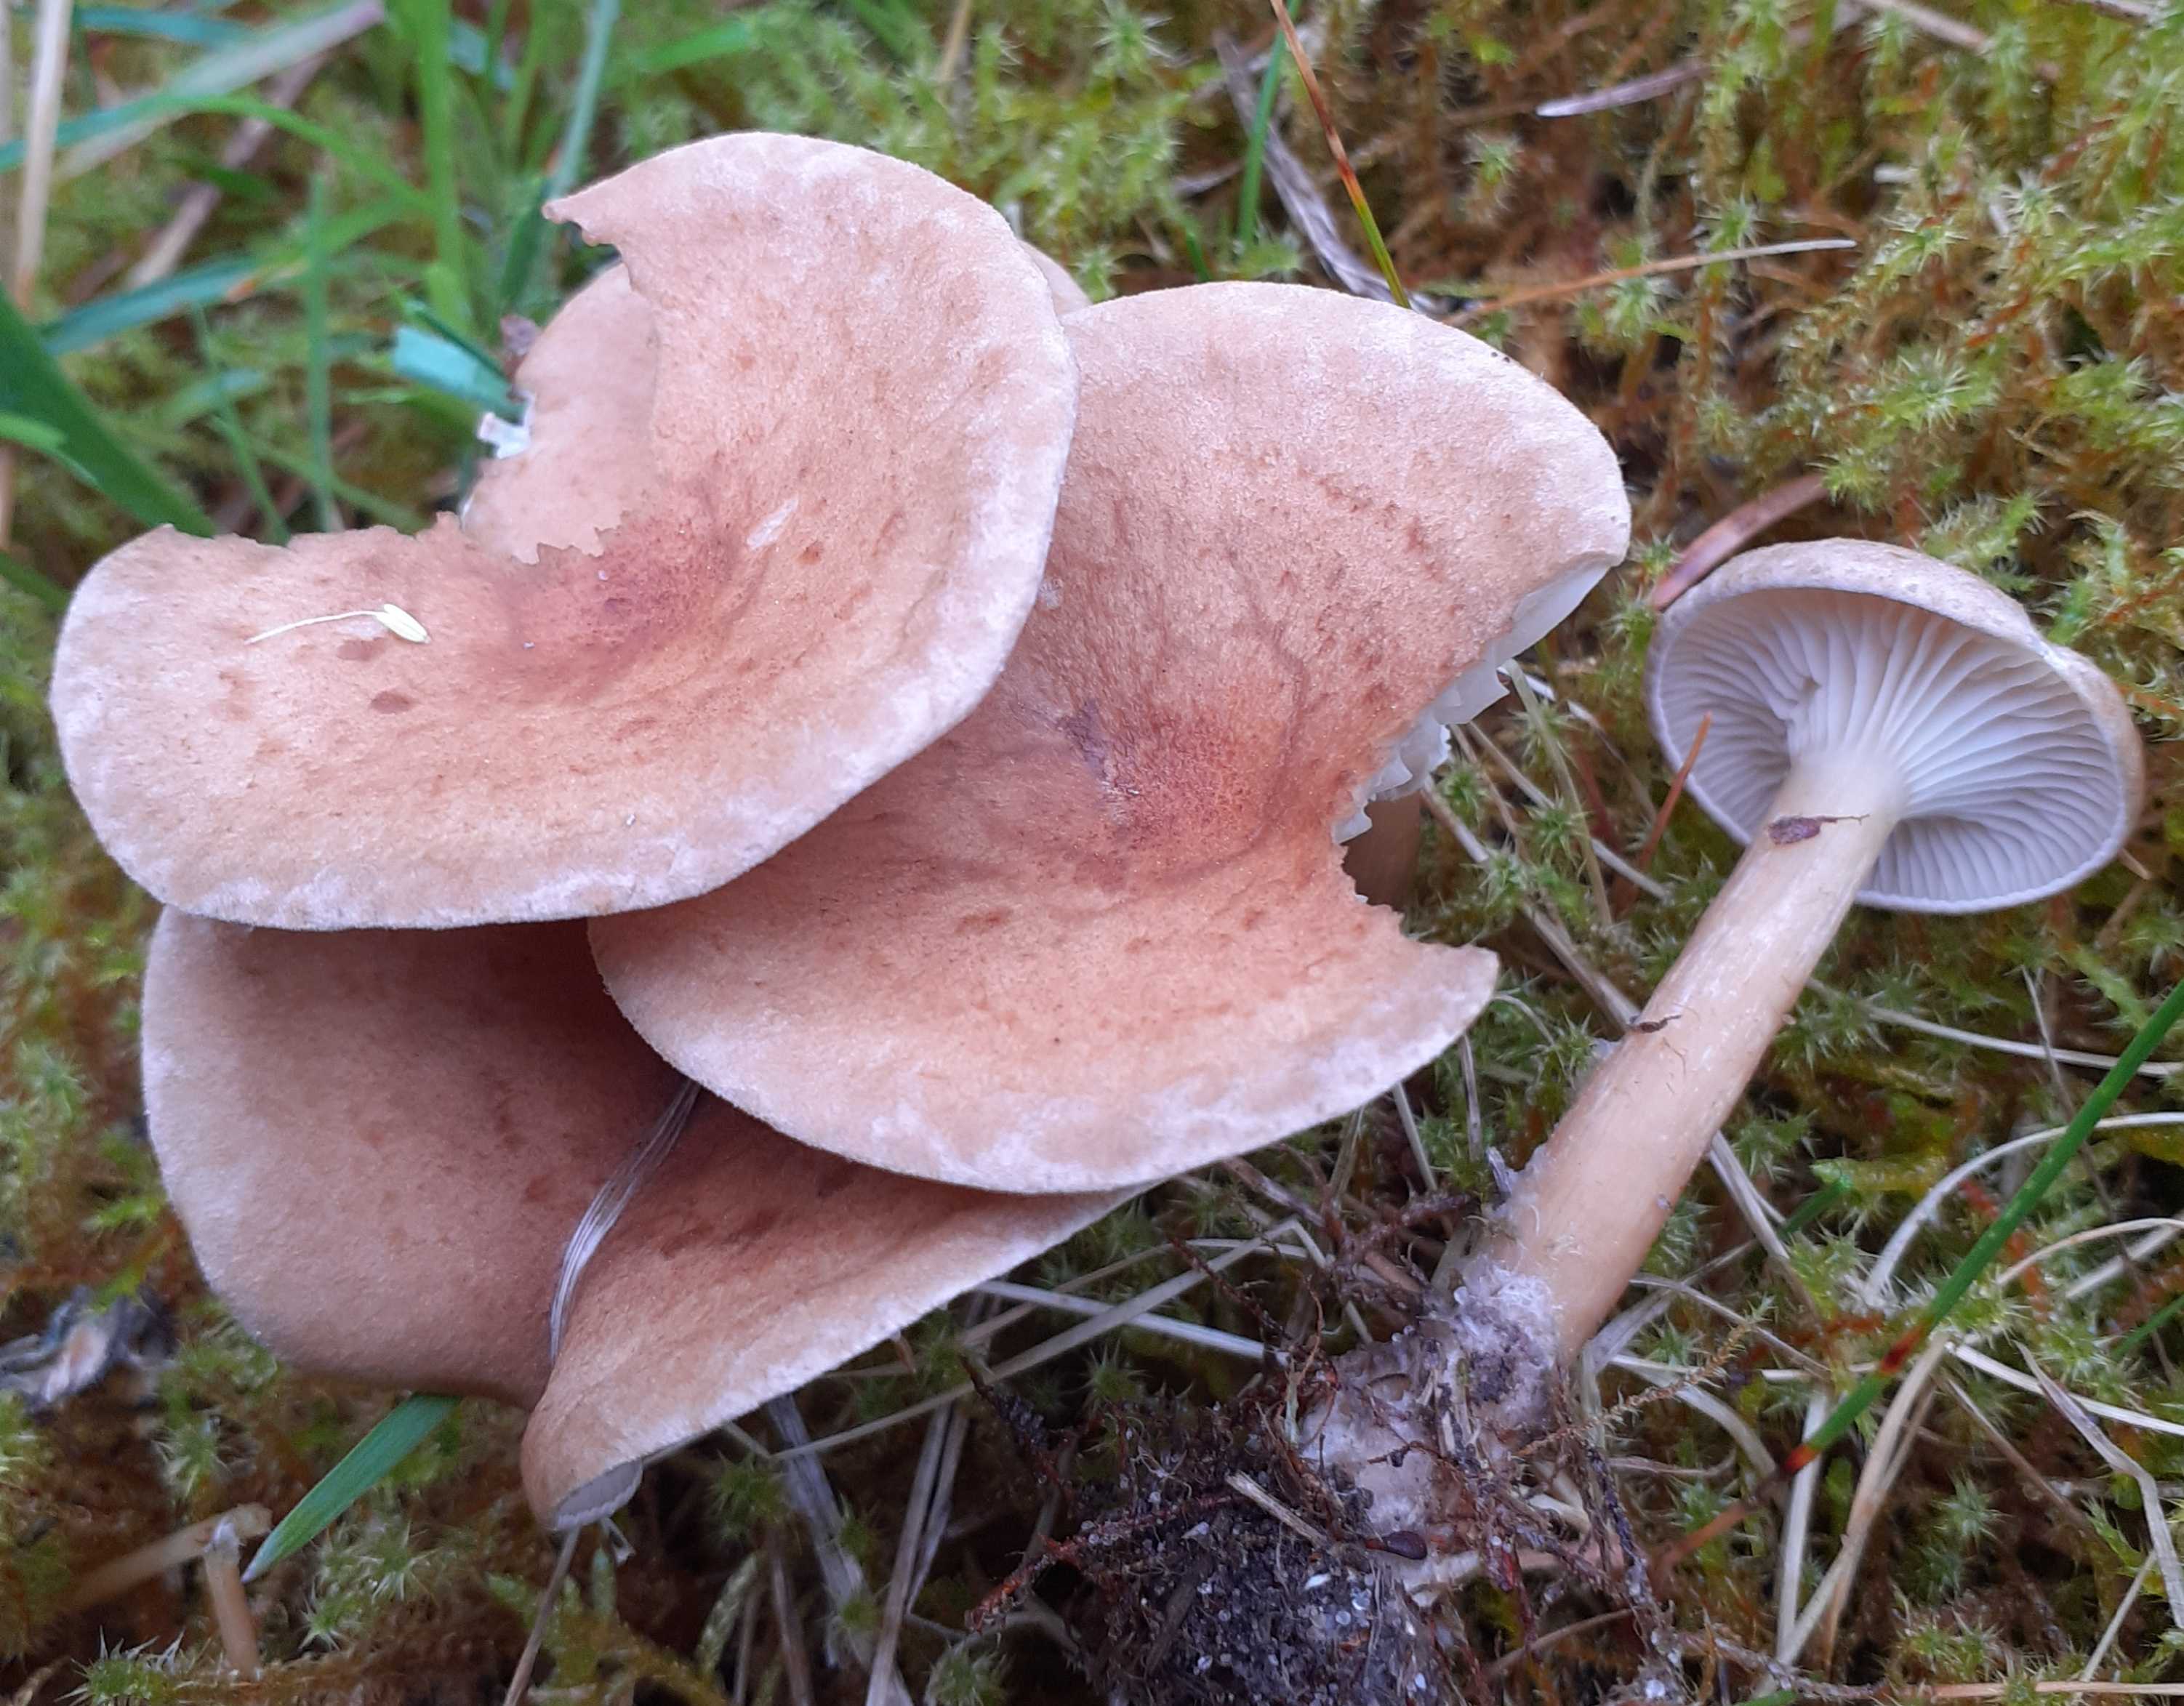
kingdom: Fungi
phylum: Basidiomycota
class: Agaricomycetes
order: Agaricales
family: Tricholomataceae
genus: Clitocybe
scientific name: Clitocybe costata
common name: brunstokket tragthat
